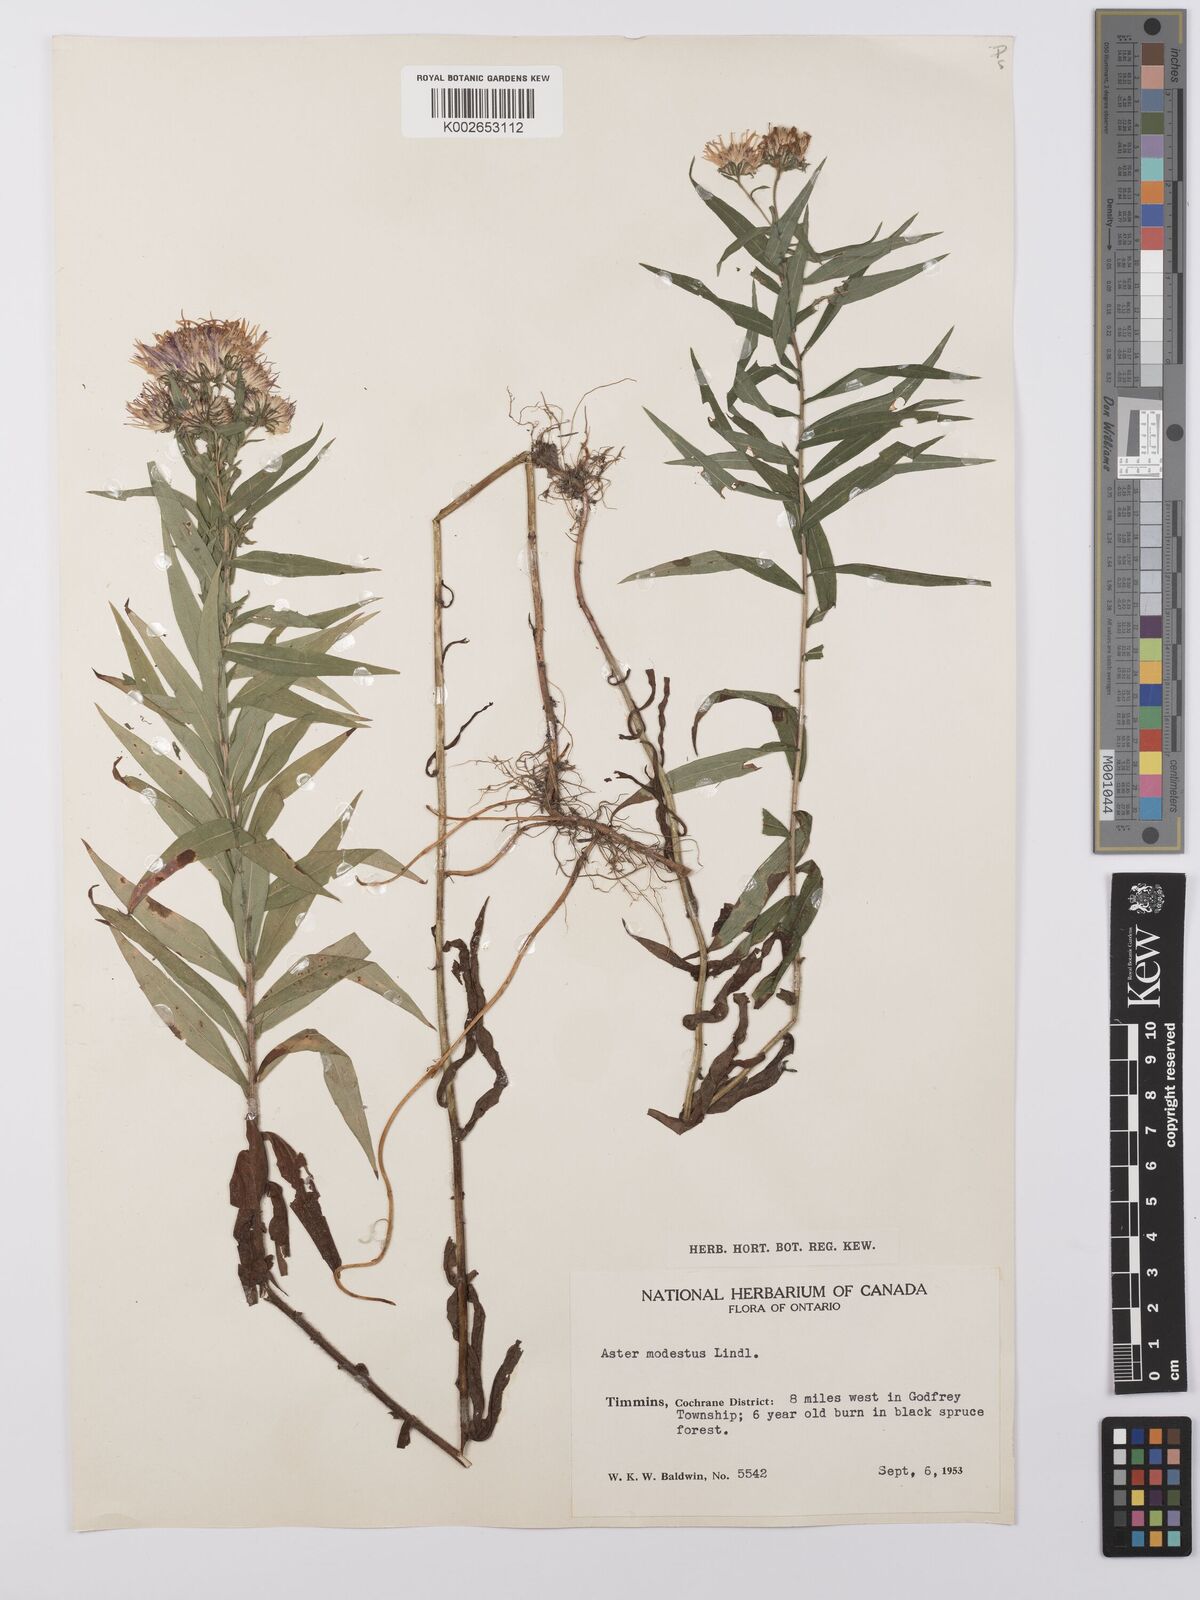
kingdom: Plantae
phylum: Tracheophyta
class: Magnoliopsida
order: Asterales
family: Asteraceae
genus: Canadanthus
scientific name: Canadanthus modestus
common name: Great northern aster
